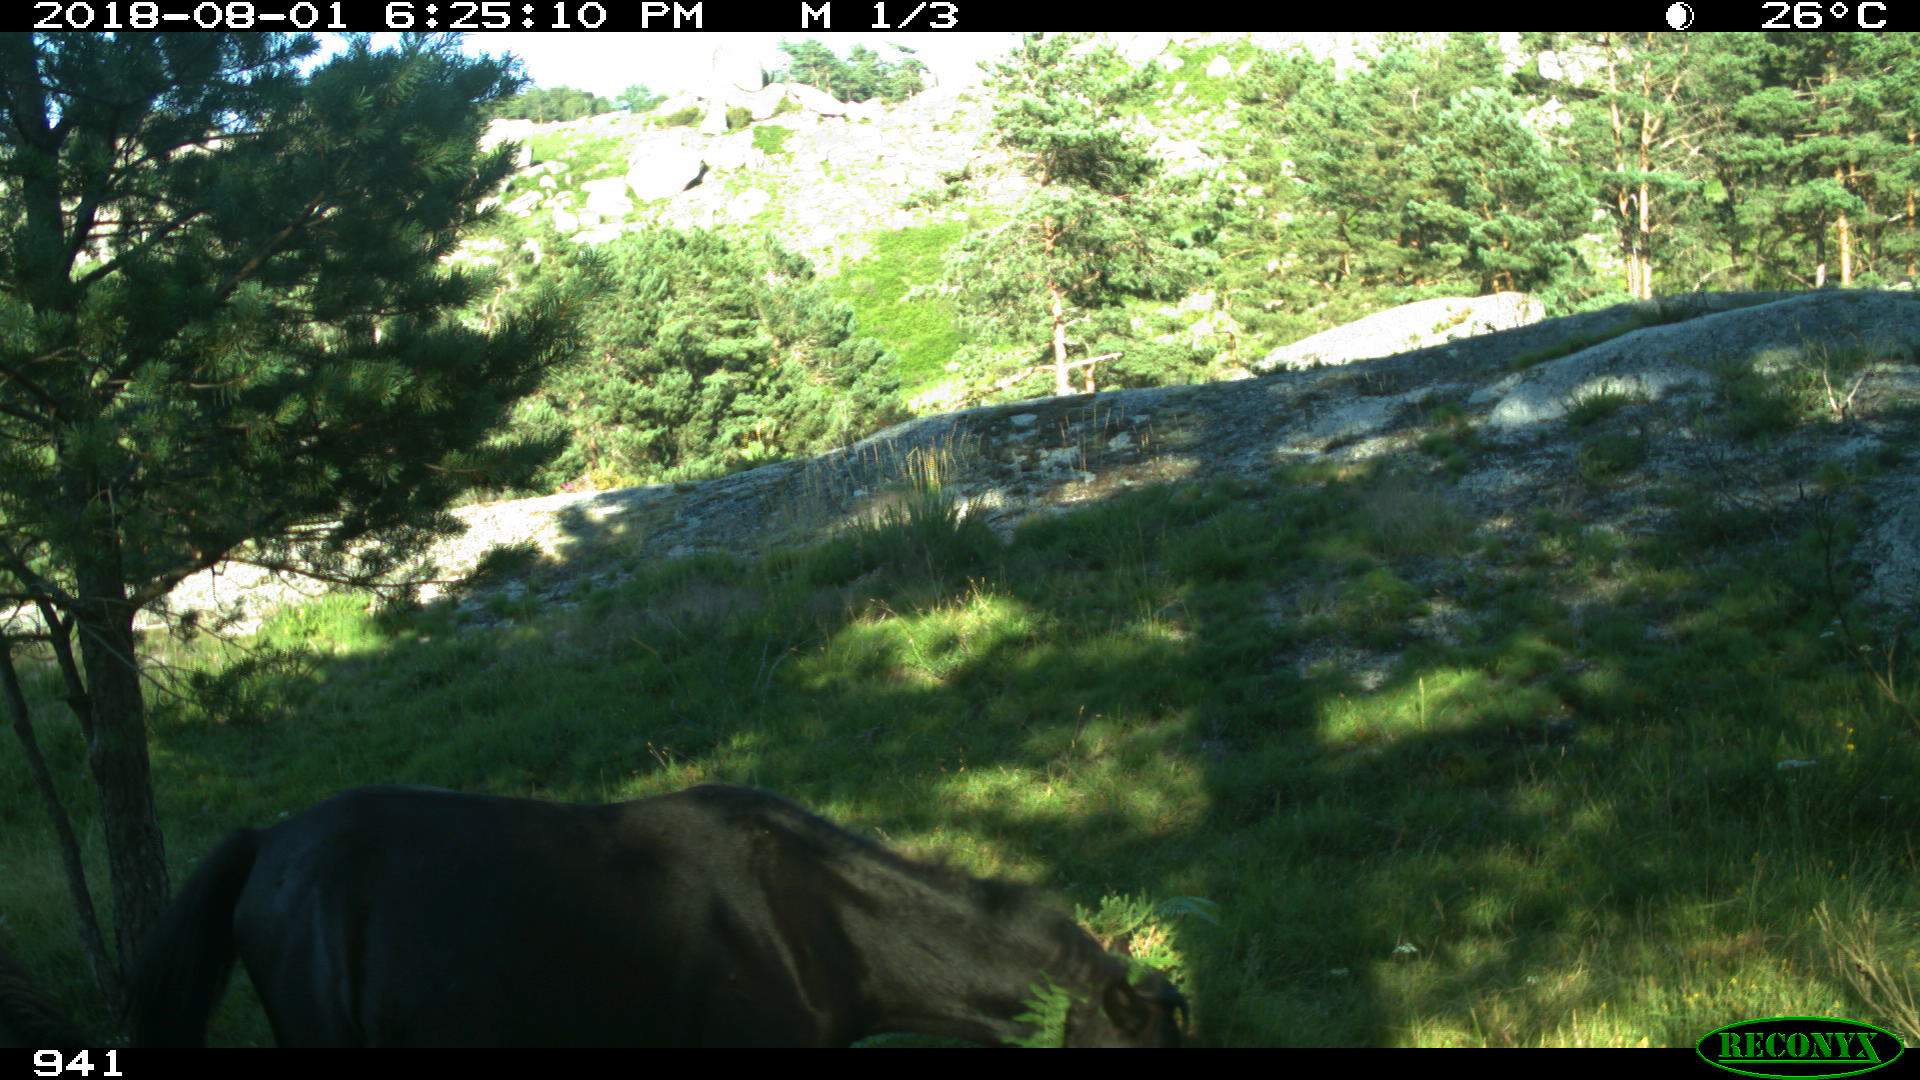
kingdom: Animalia
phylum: Chordata
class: Mammalia
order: Perissodactyla
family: Equidae
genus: Equus
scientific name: Equus caballus
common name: Horse
